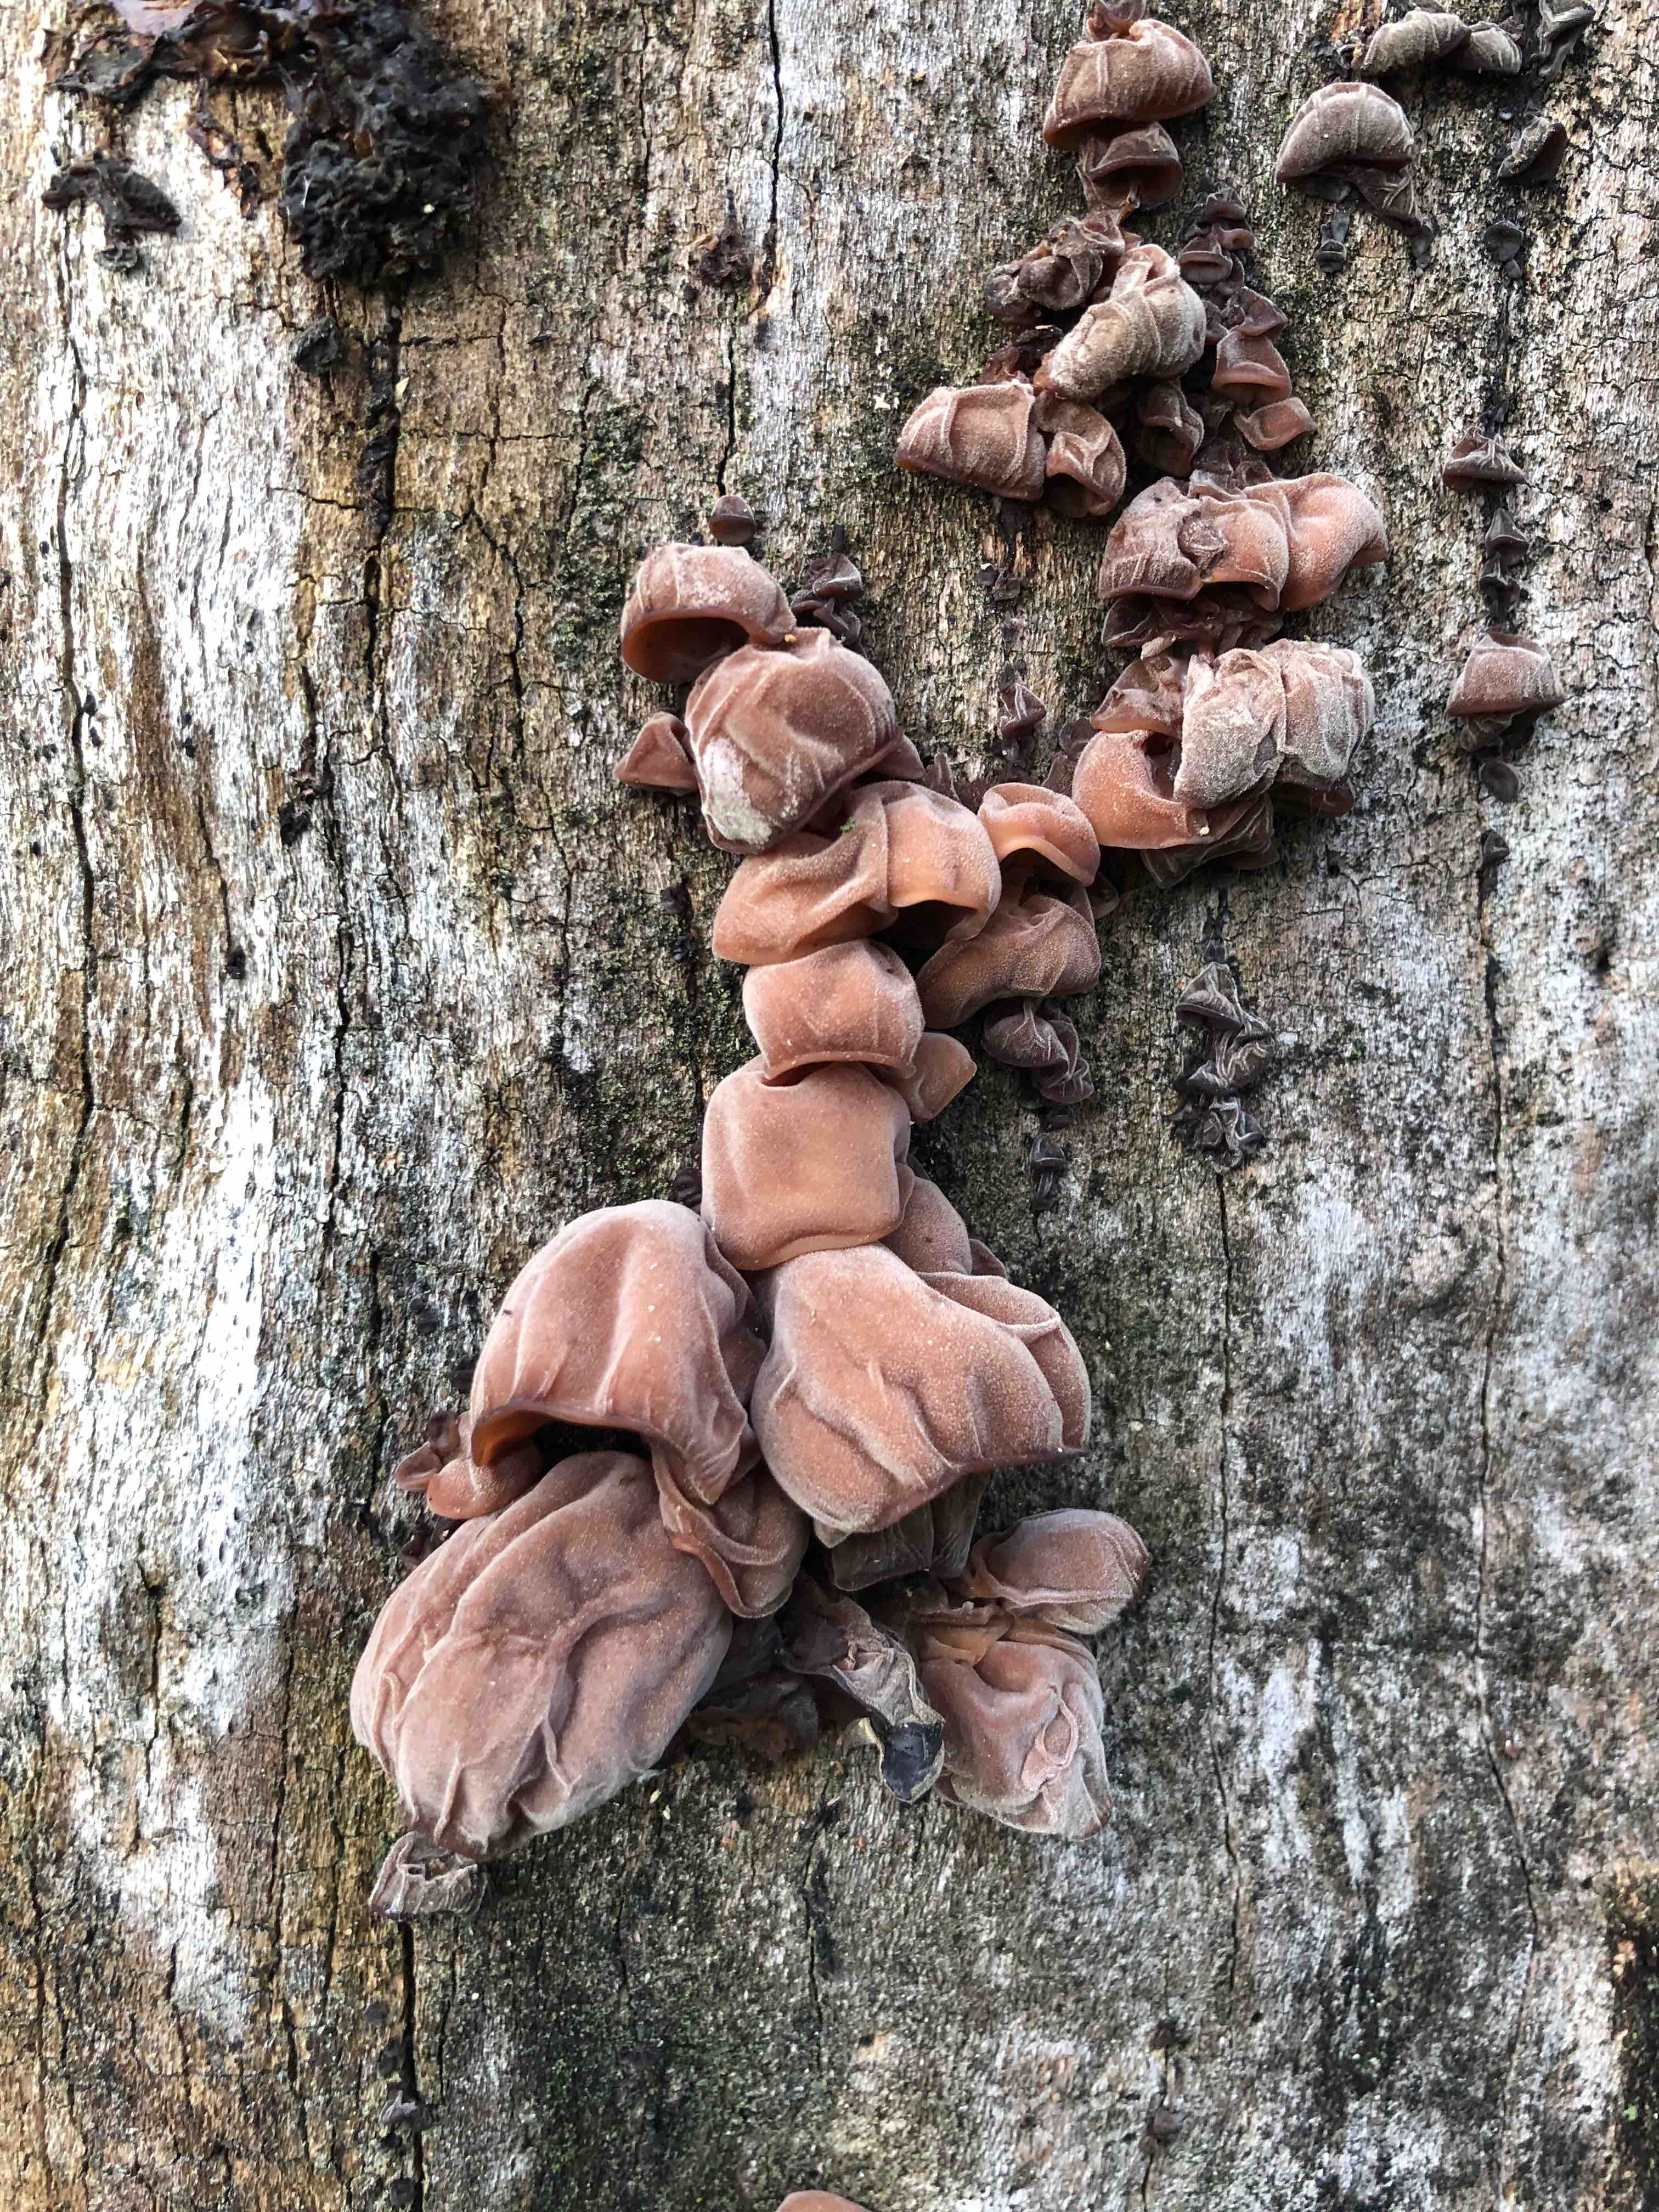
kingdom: Fungi
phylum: Basidiomycota
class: Agaricomycetes
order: Auriculariales
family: Auriculariaceae
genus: Auricularia
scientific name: Auricularia auricula-judae
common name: almindelig judasøre
